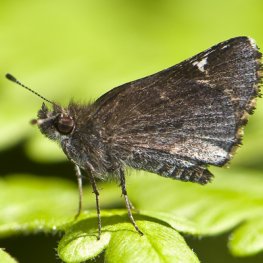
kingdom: Animalia
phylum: Arthropoda
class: Insecta
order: Lepidoptera
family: Hesperiidae
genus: Mastor
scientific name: Mastor vialis
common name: Common Roadside-Skipper
